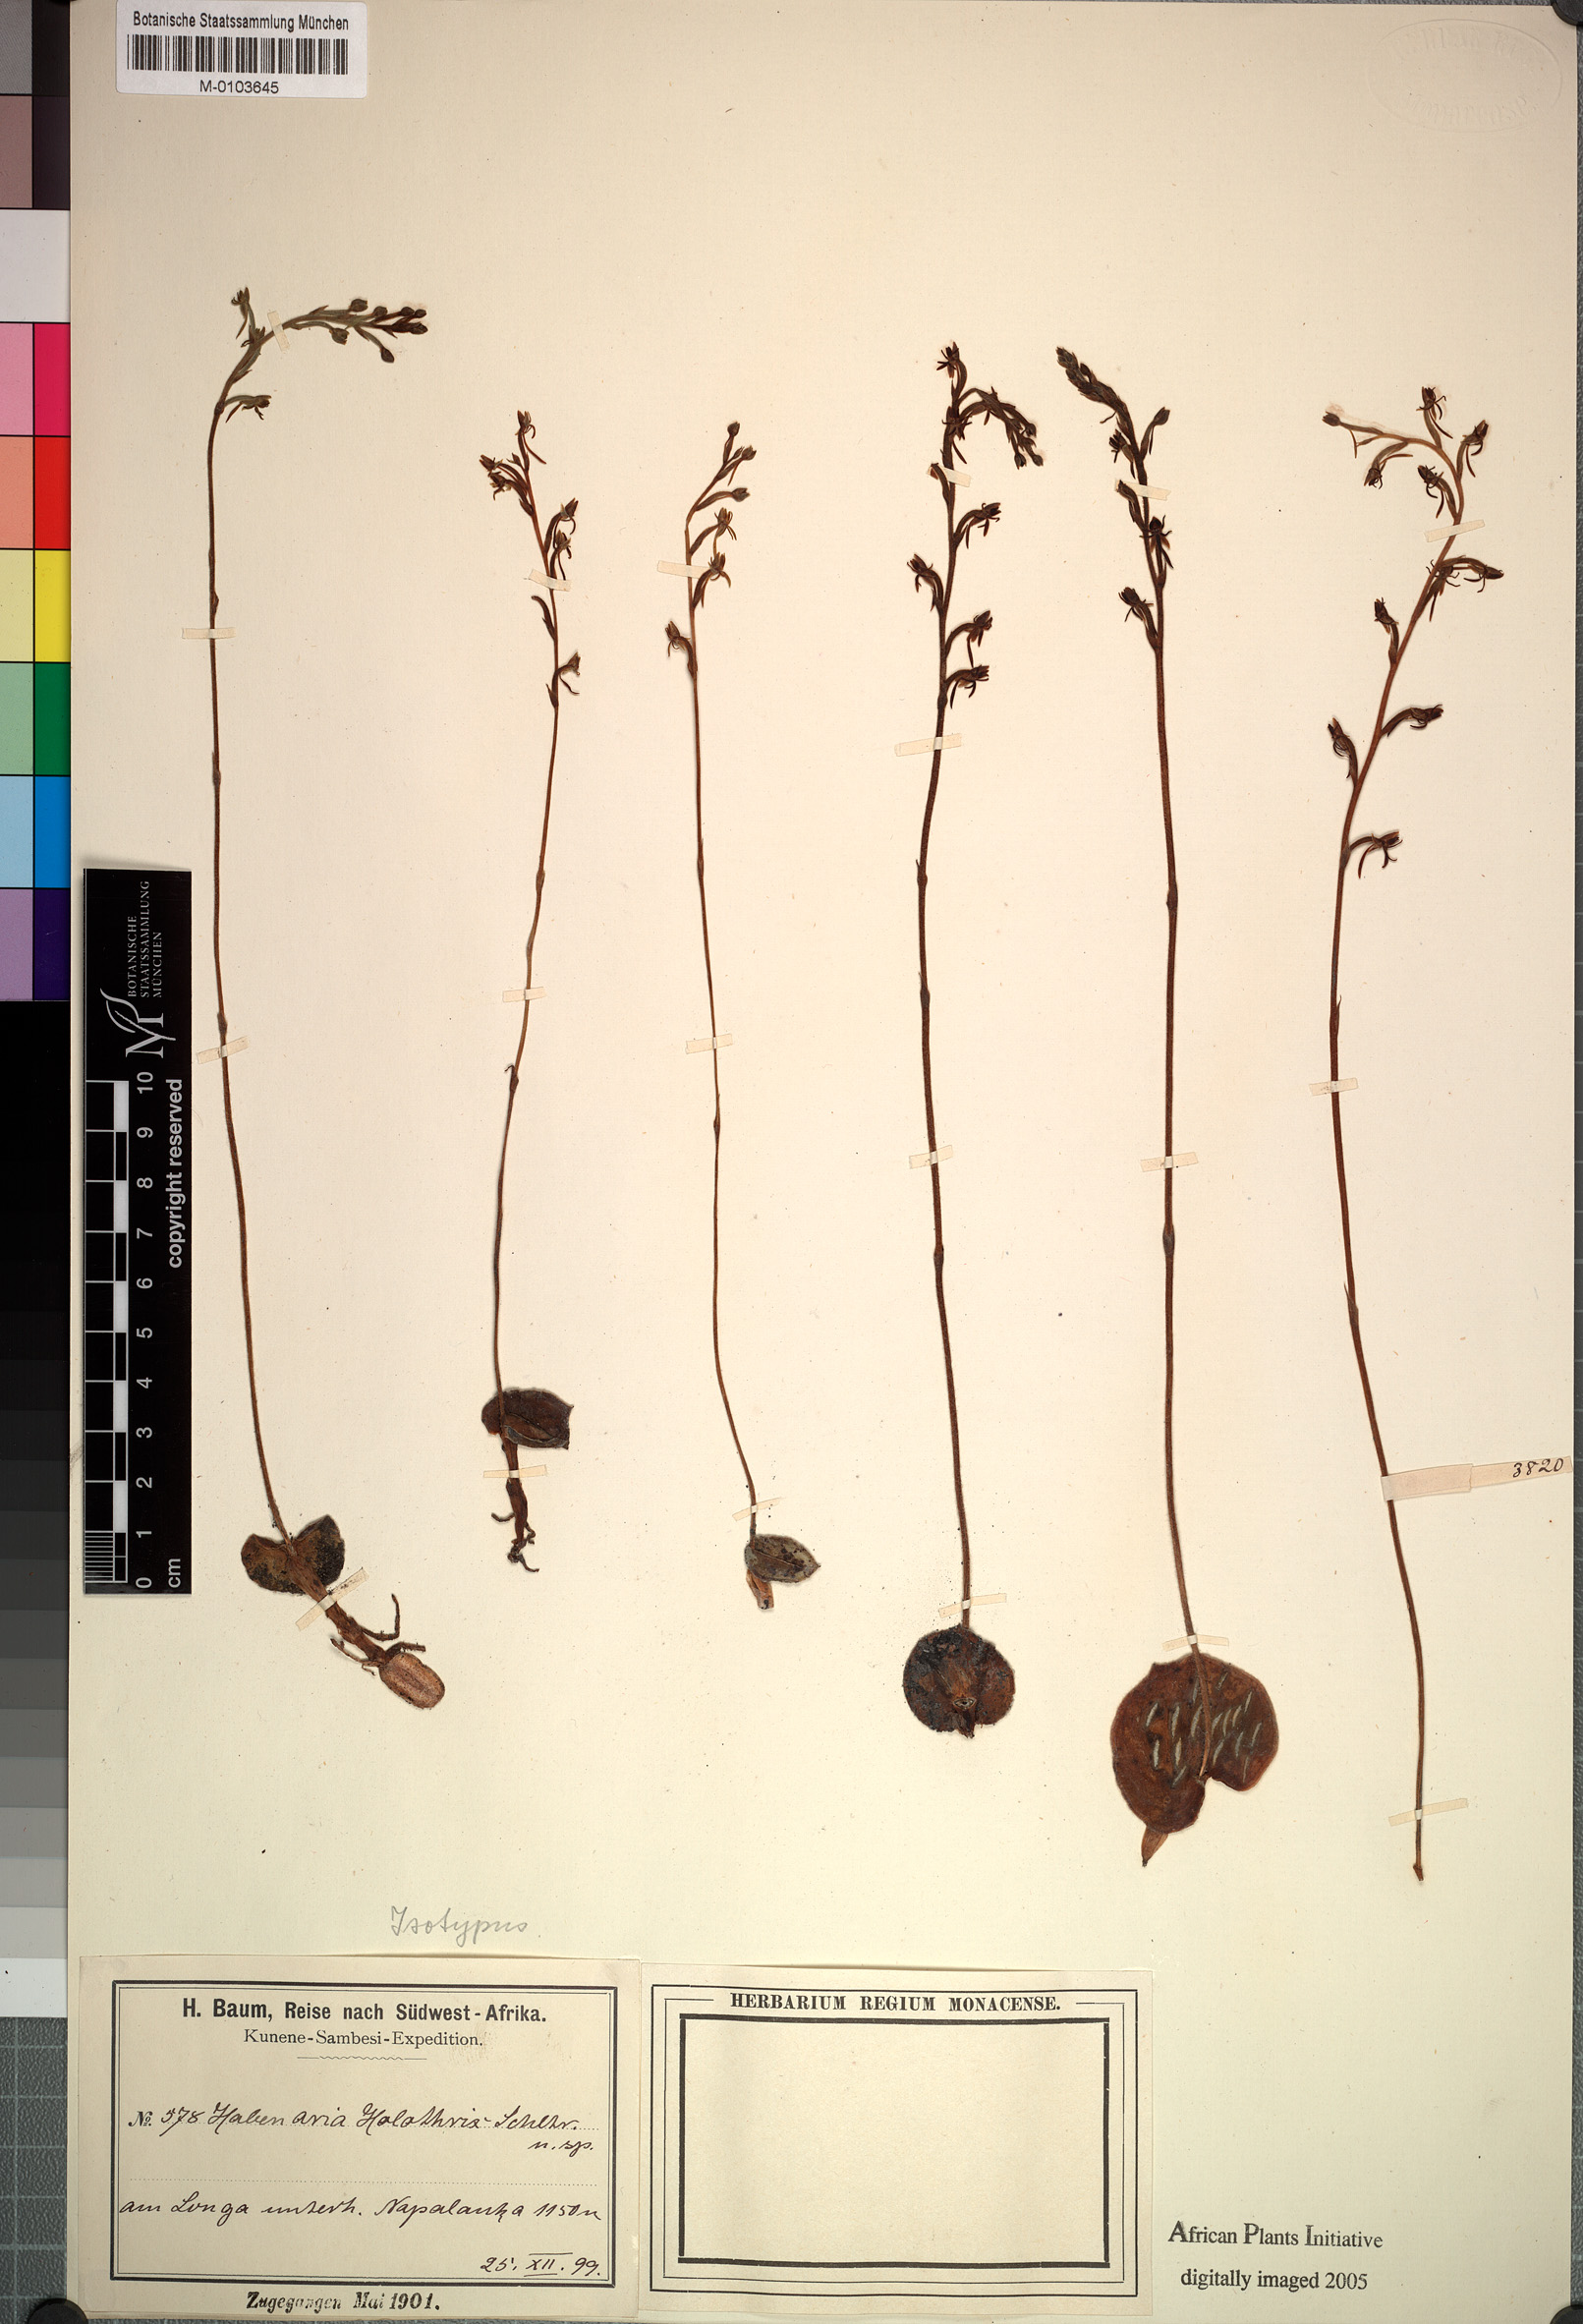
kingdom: Plantae
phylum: Tracheophyta
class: Liliopsida
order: Asparagales
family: Orchidaceae
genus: Habenaria
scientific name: Habenaria holothrix
